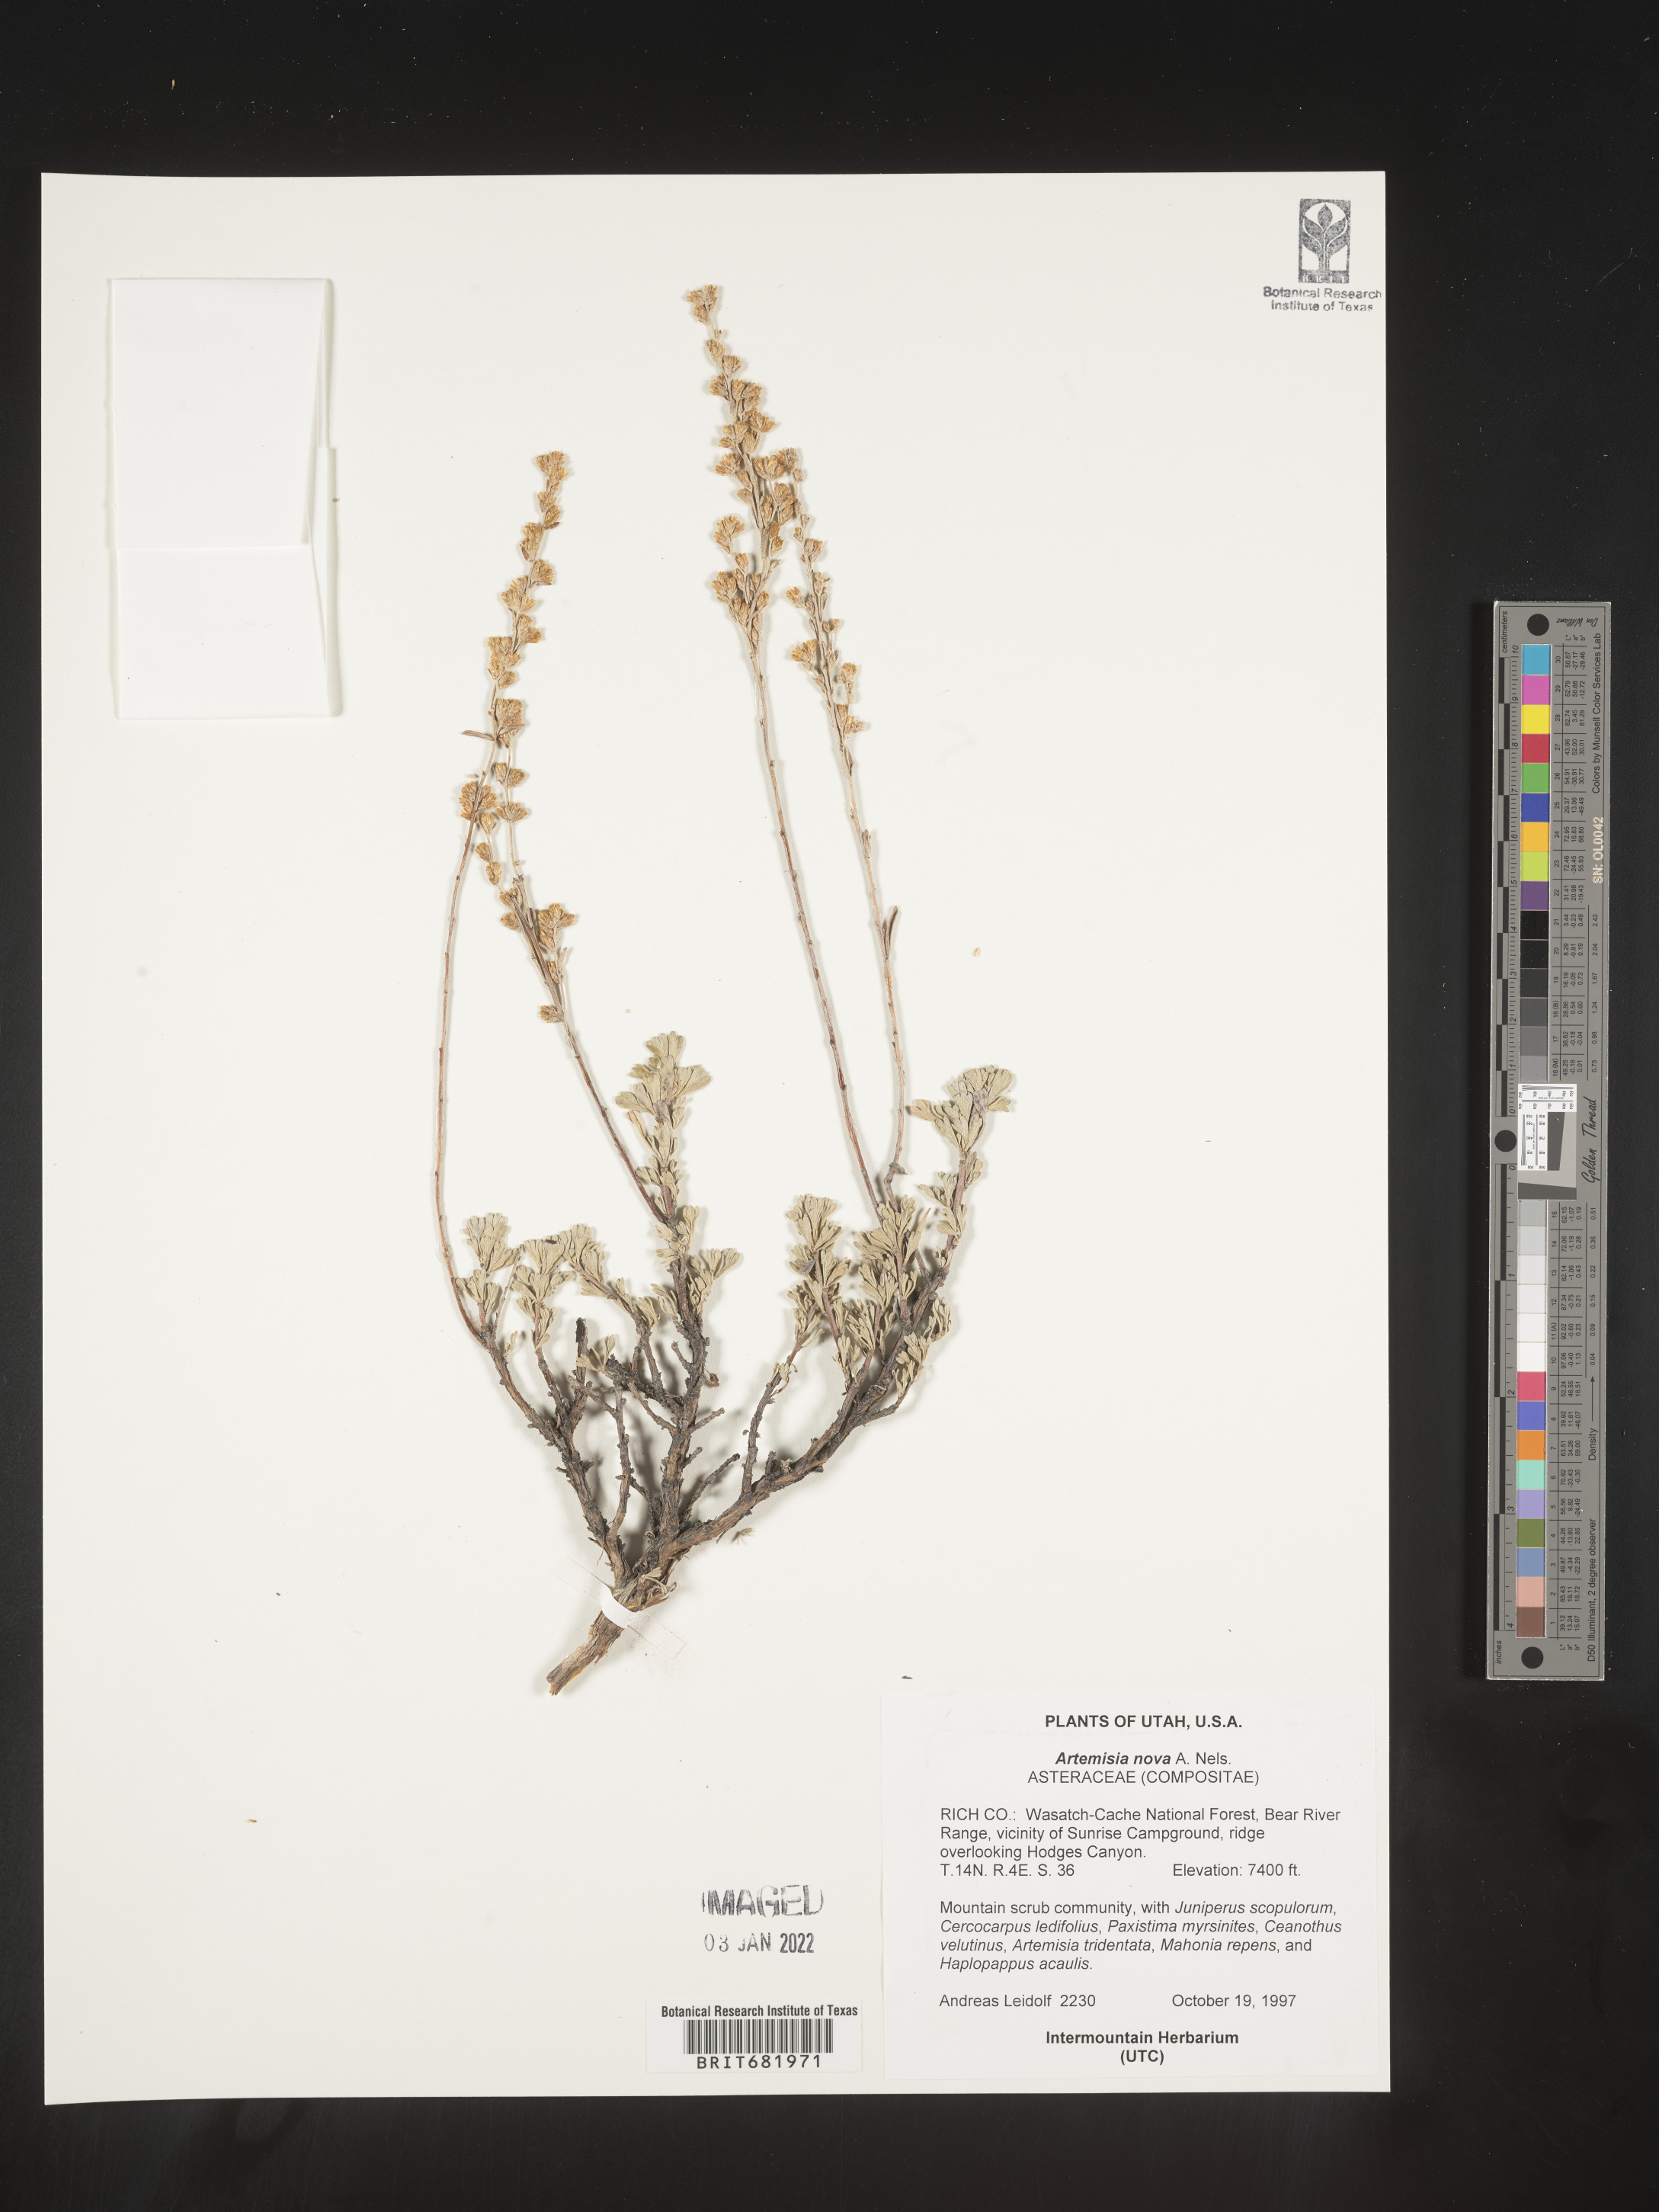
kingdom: Plantae
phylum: Tracheophyta
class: Magnoliopsida
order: Asterales
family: Asteraceae
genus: Artemisia
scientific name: Artemisia nova
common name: Black-sage
